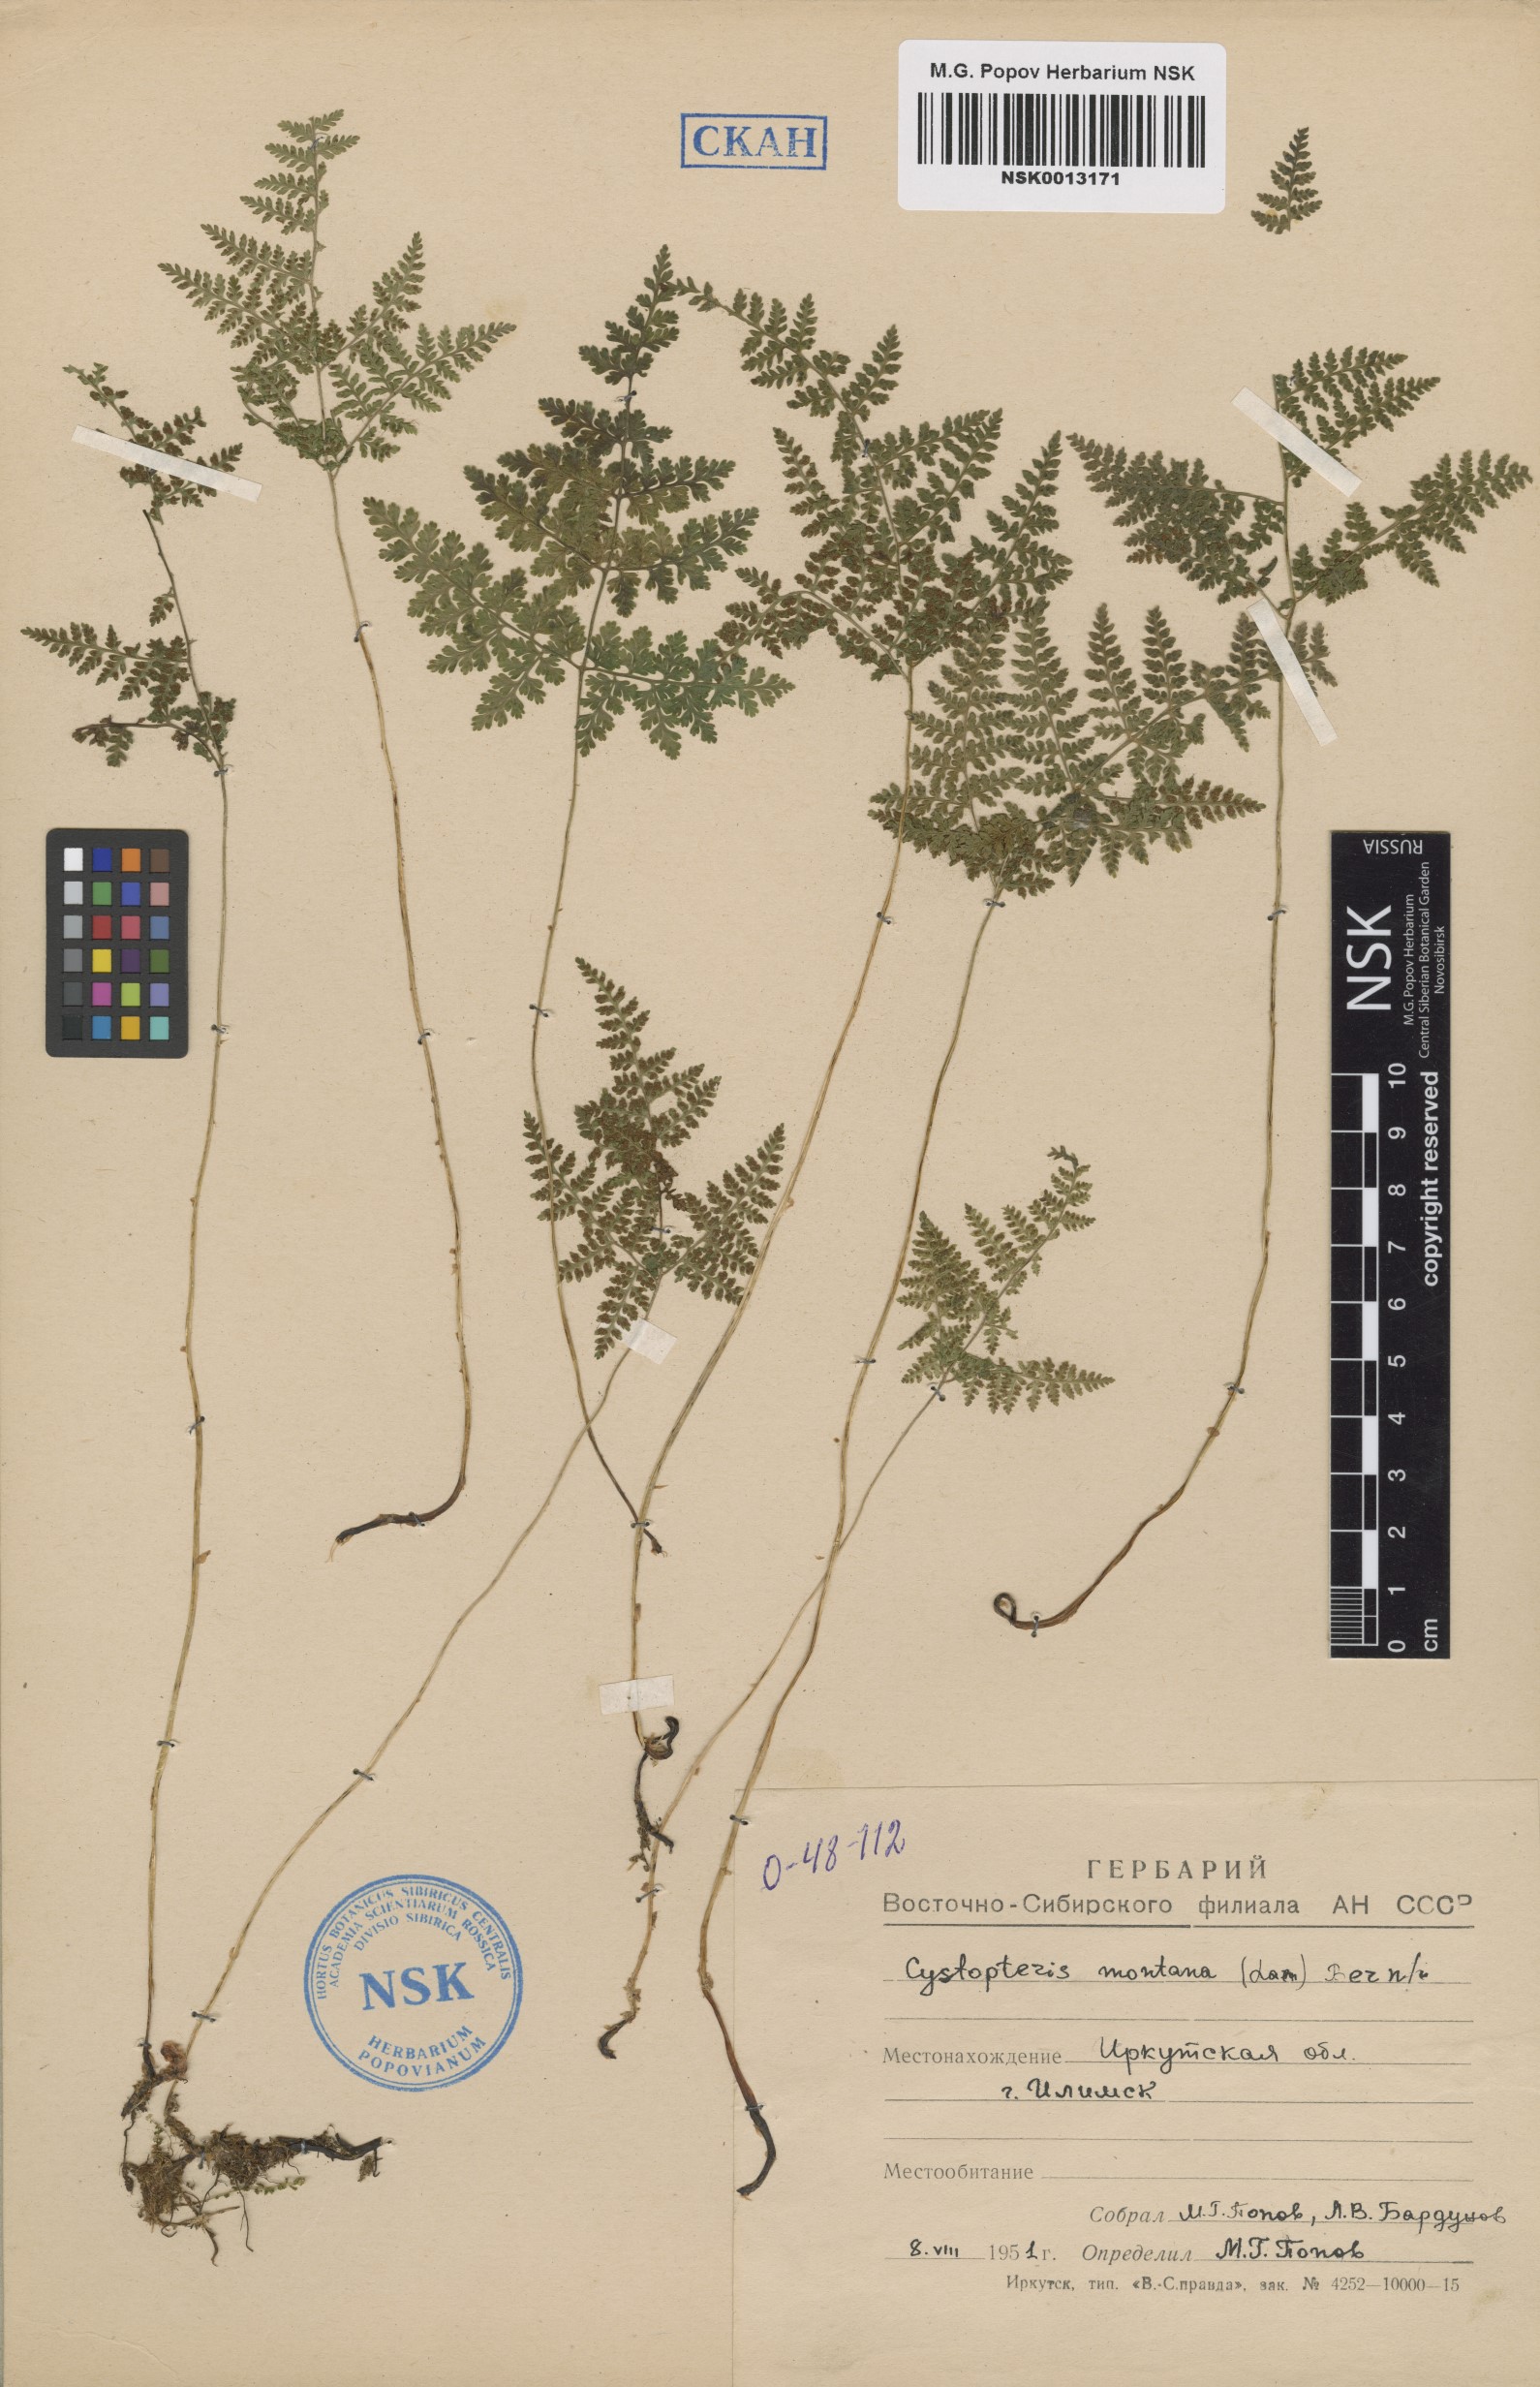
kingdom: Plantae
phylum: Tracheophyta
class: Polypodiopsida
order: Polypodiales
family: Cystopteridaceae
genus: Cystopteris
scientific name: Cystopteris montana
